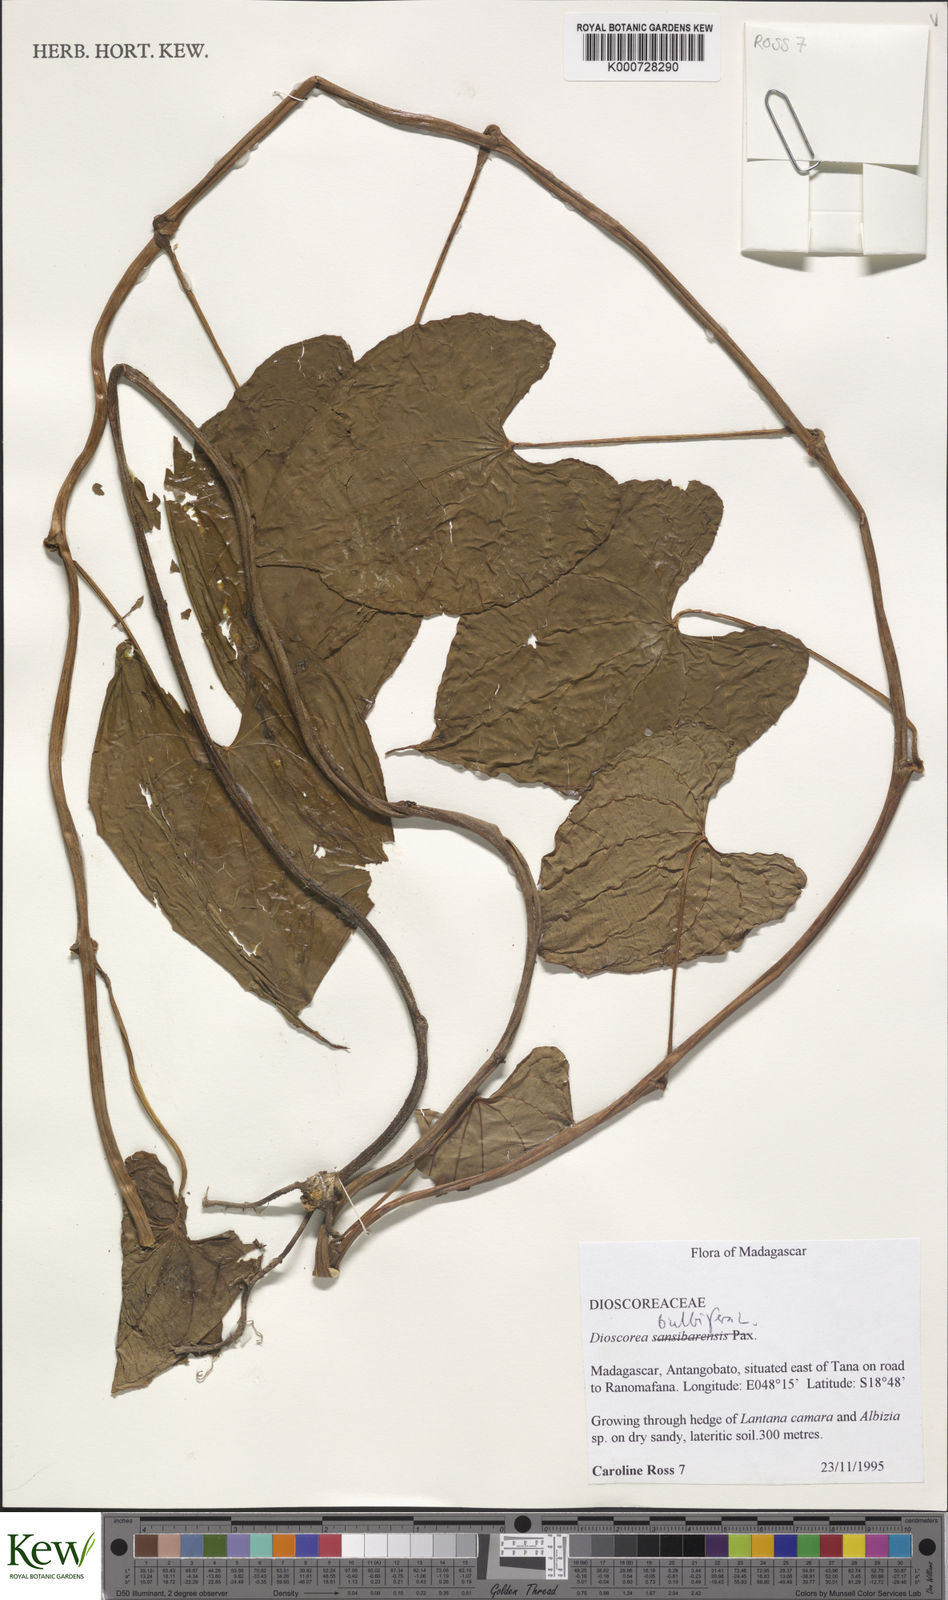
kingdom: Plantae
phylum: Tracheophyta
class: Liliopsida
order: Dioscoreales
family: Dioscoreaceae
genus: Dioscorea
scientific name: Dioscorea bulbifera
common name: Air yam
